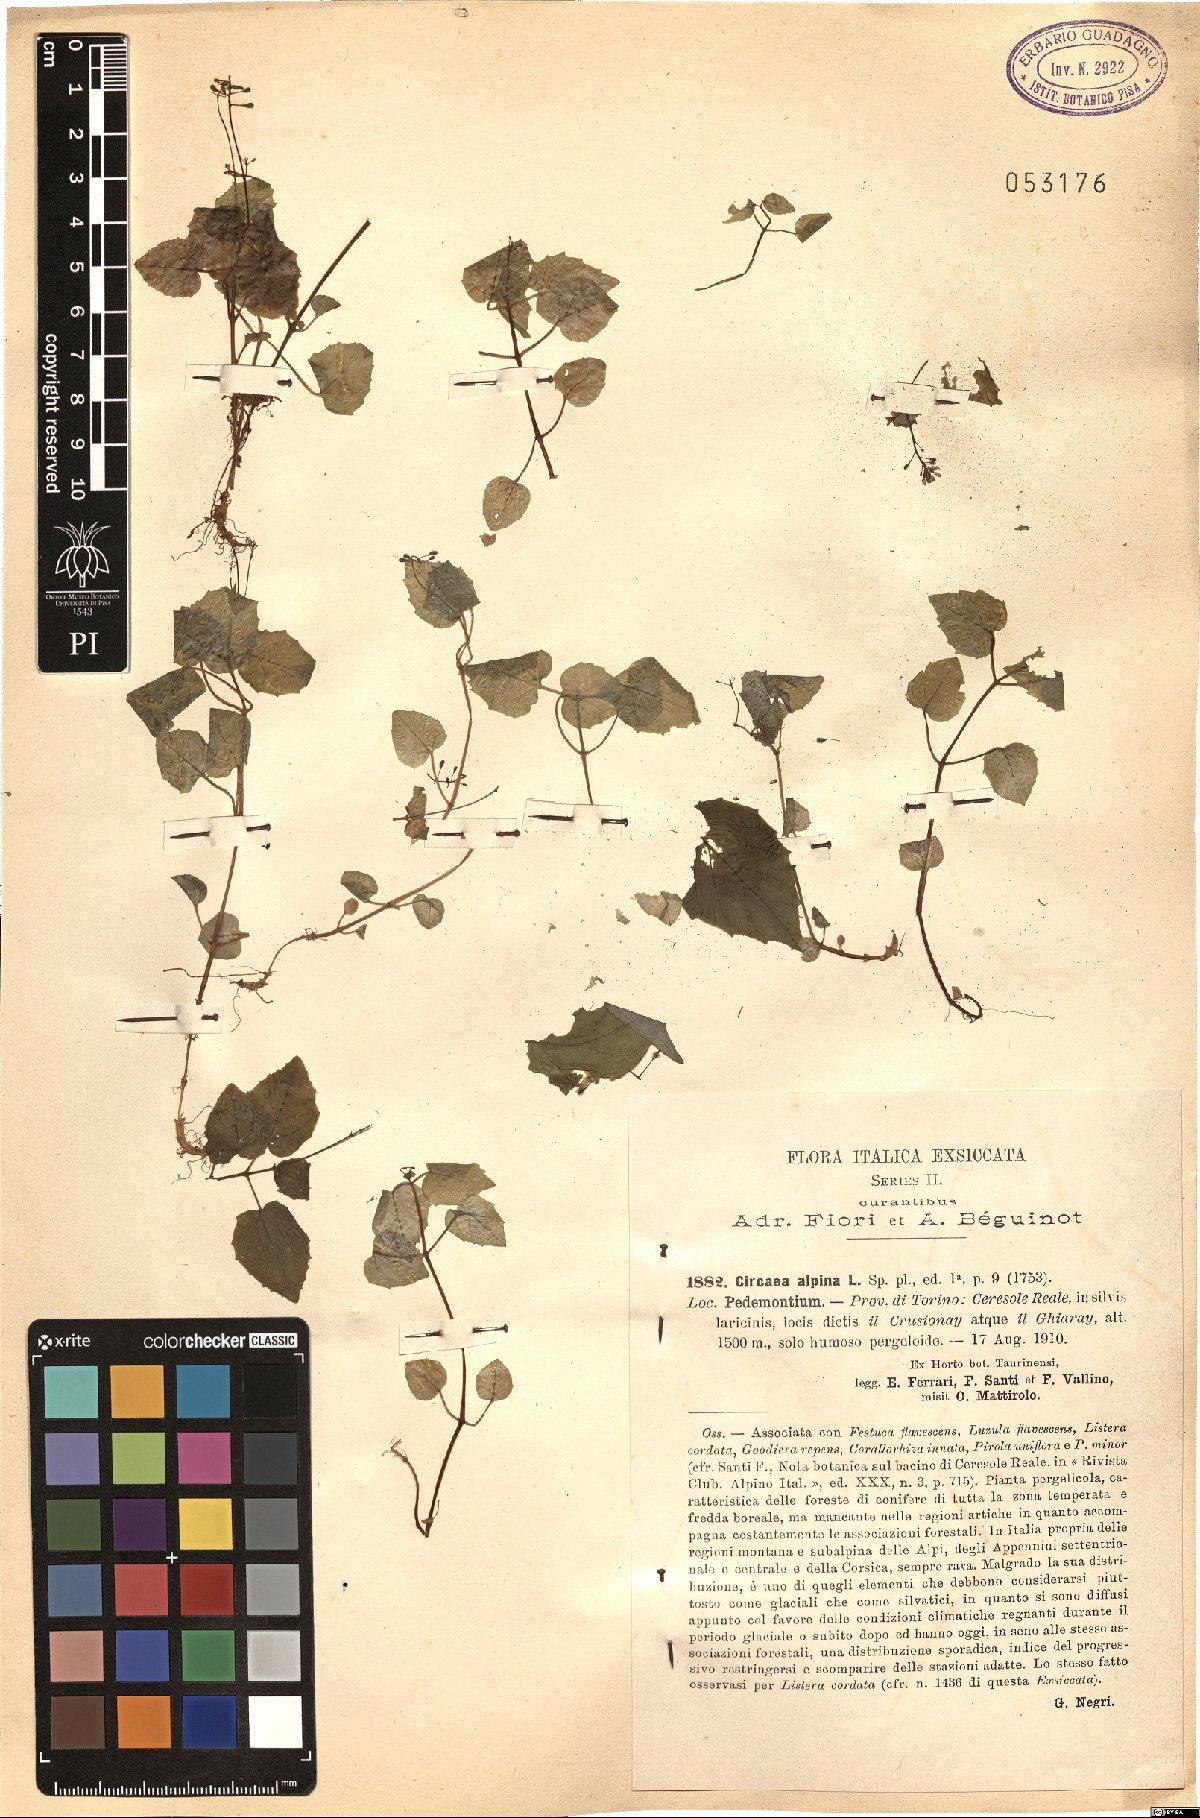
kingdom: Plantae
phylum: Tracheophyta
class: Magnoliopsida
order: Myrtales
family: Onagraceae
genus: Circaea
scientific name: Circaea alpina
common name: Alpine enchanter's-nightshade
